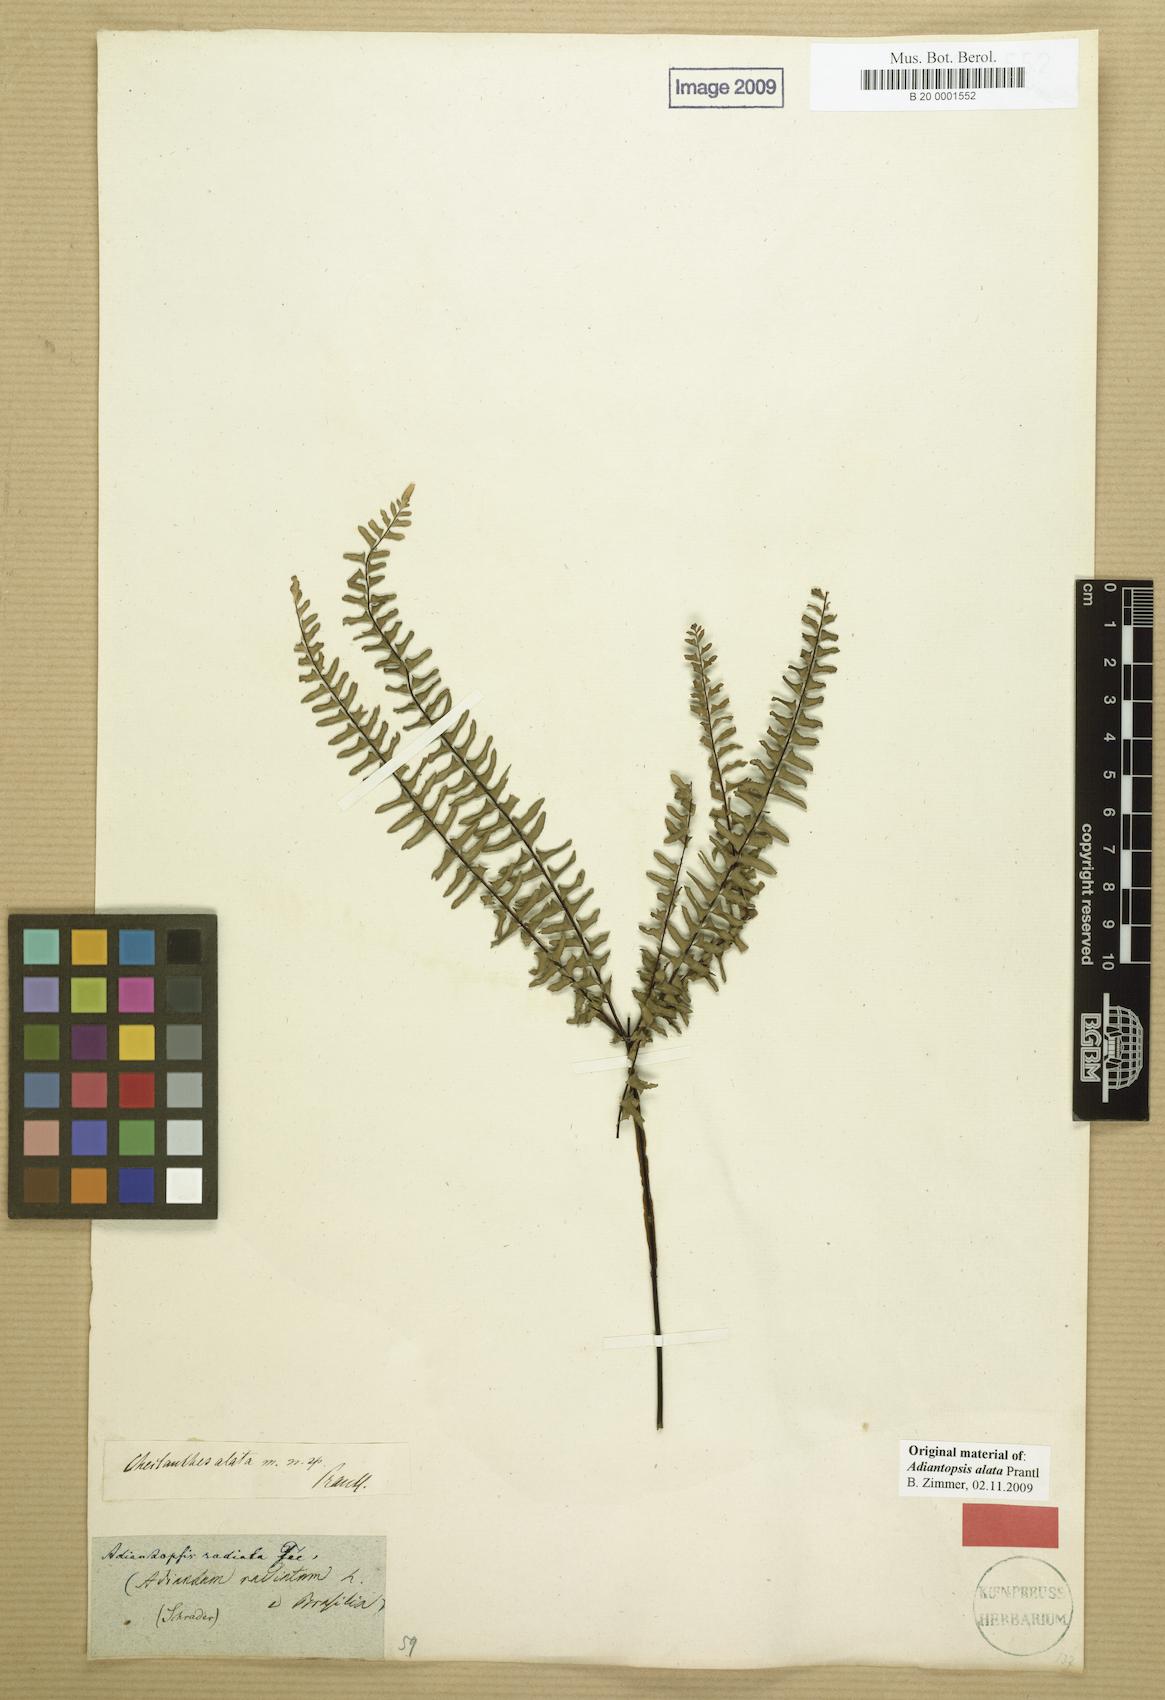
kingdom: Plantae
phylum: Tracheophyta
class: Polypodiopsida
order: Polypodiales
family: Pteridaceae
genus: Adiantopsis
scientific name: Adiantopsis alata
